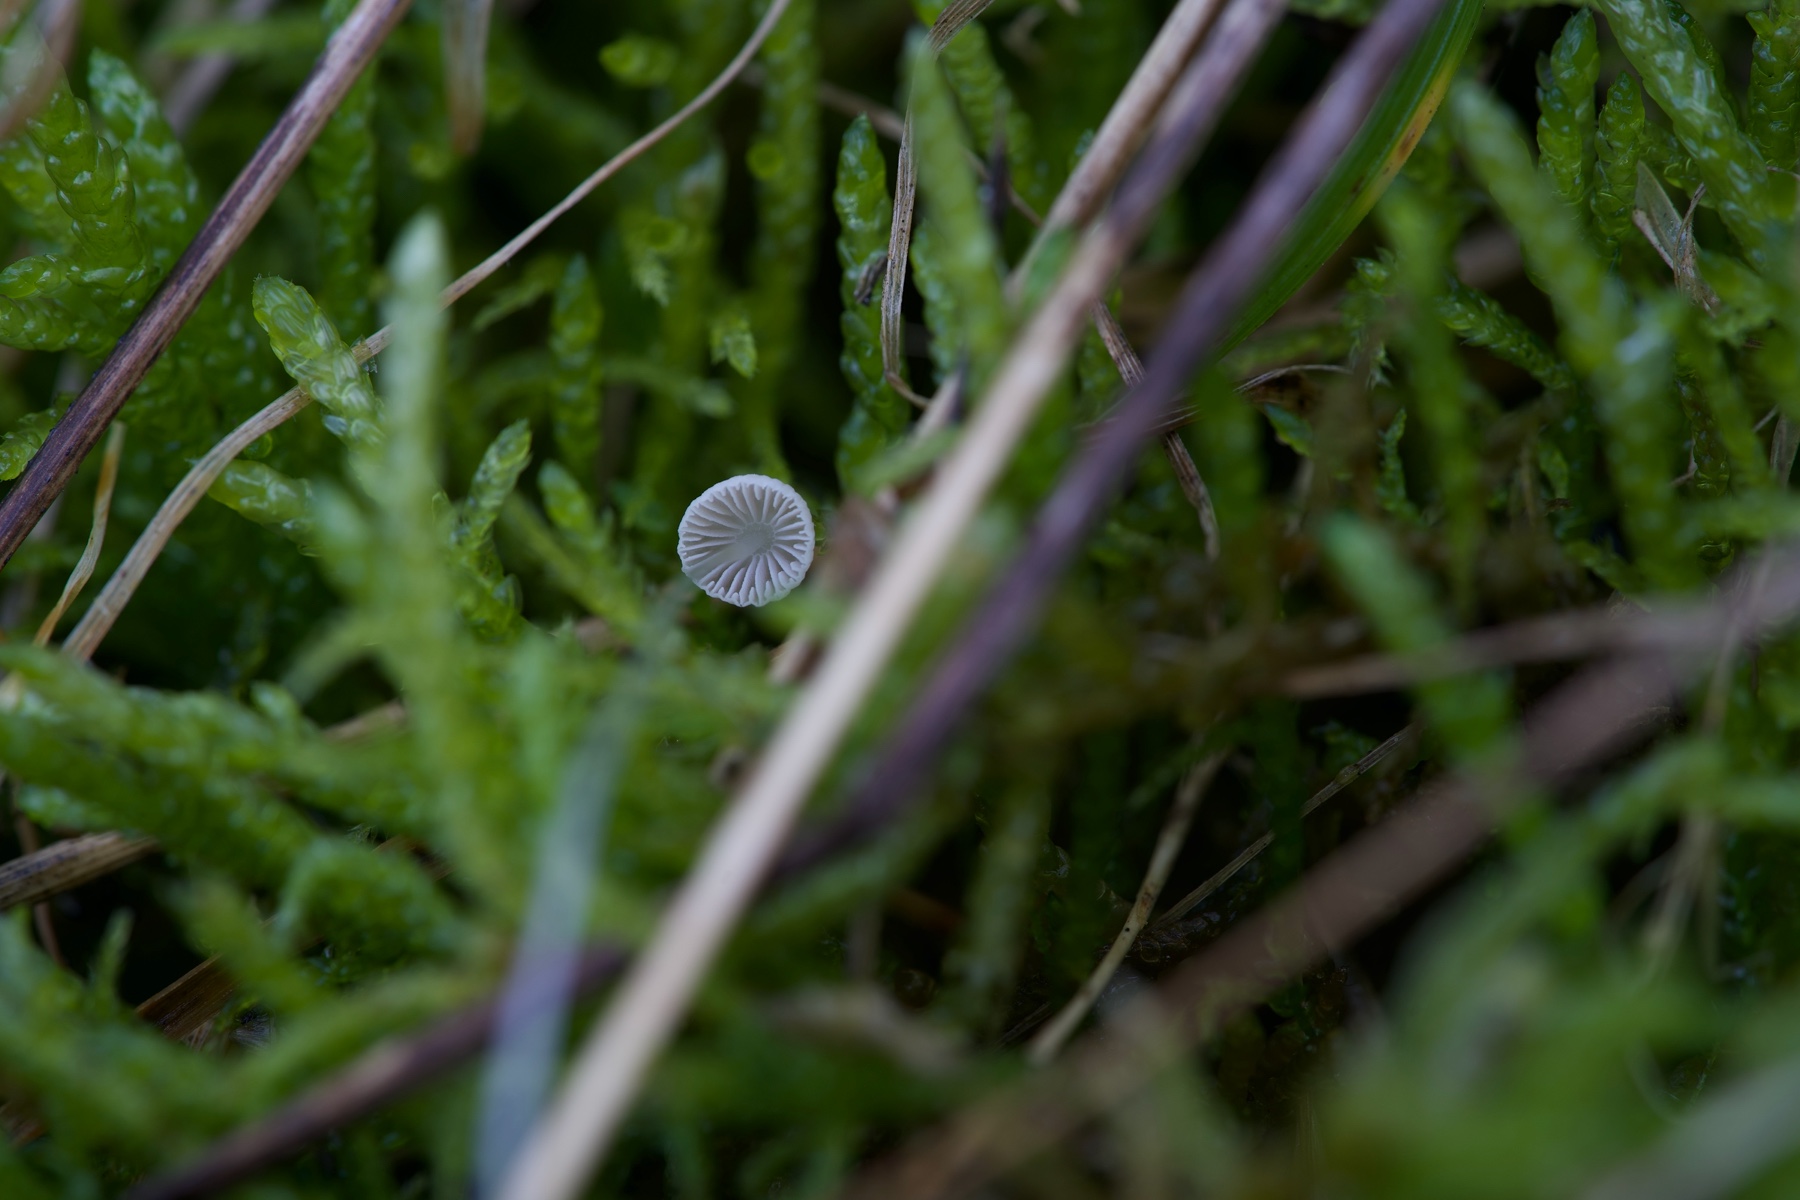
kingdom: Fungi
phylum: Basidiomycota
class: Agaricomycetes
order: Agaricales
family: Mycenaceae
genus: Mycena
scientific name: Mycena stylobates
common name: fureskivet huesvamp
